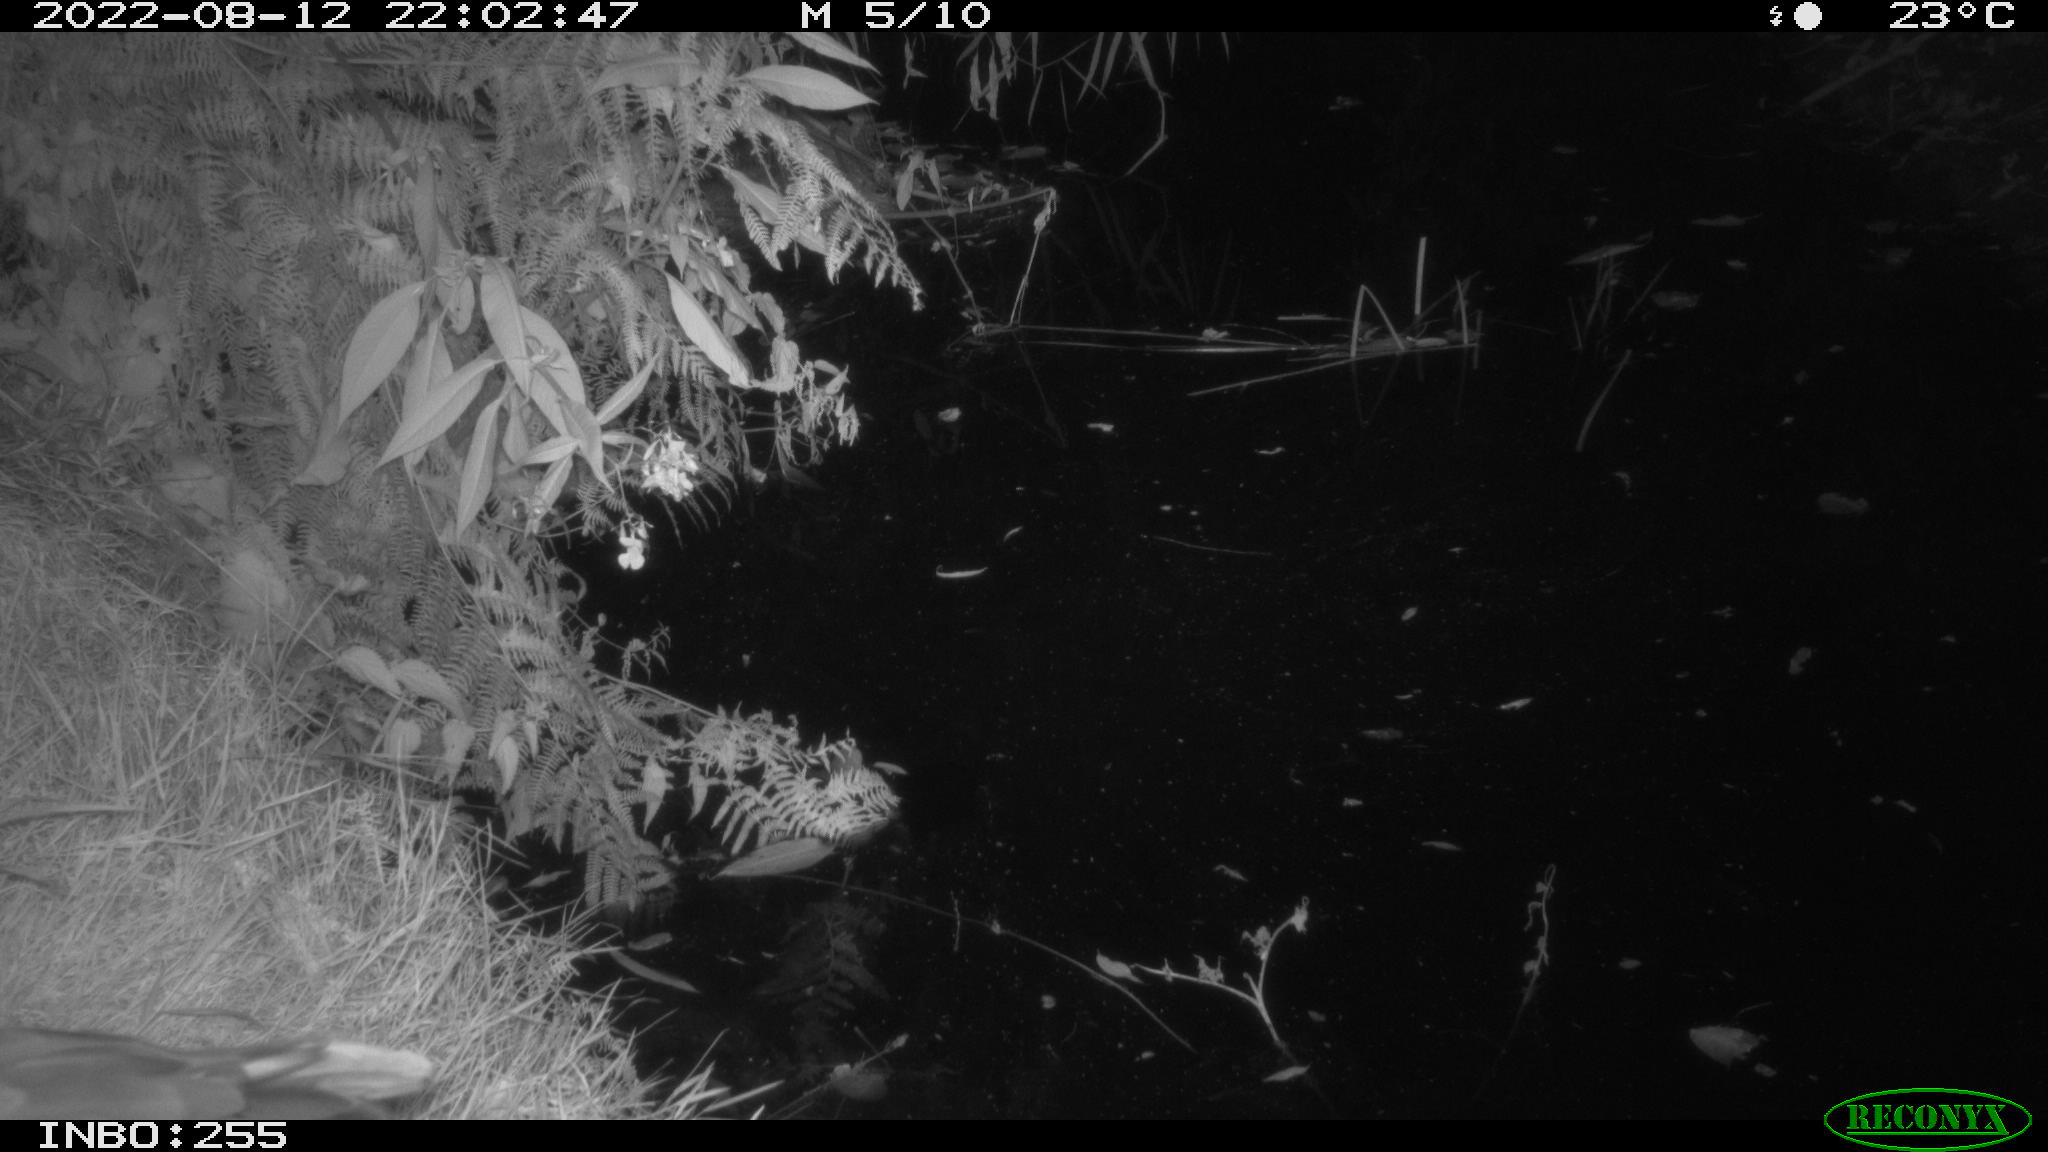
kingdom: Animalia
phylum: Chordata
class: Aves
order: Pelecaniformes
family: Ardeidae
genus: Ardea
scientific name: Ardea
